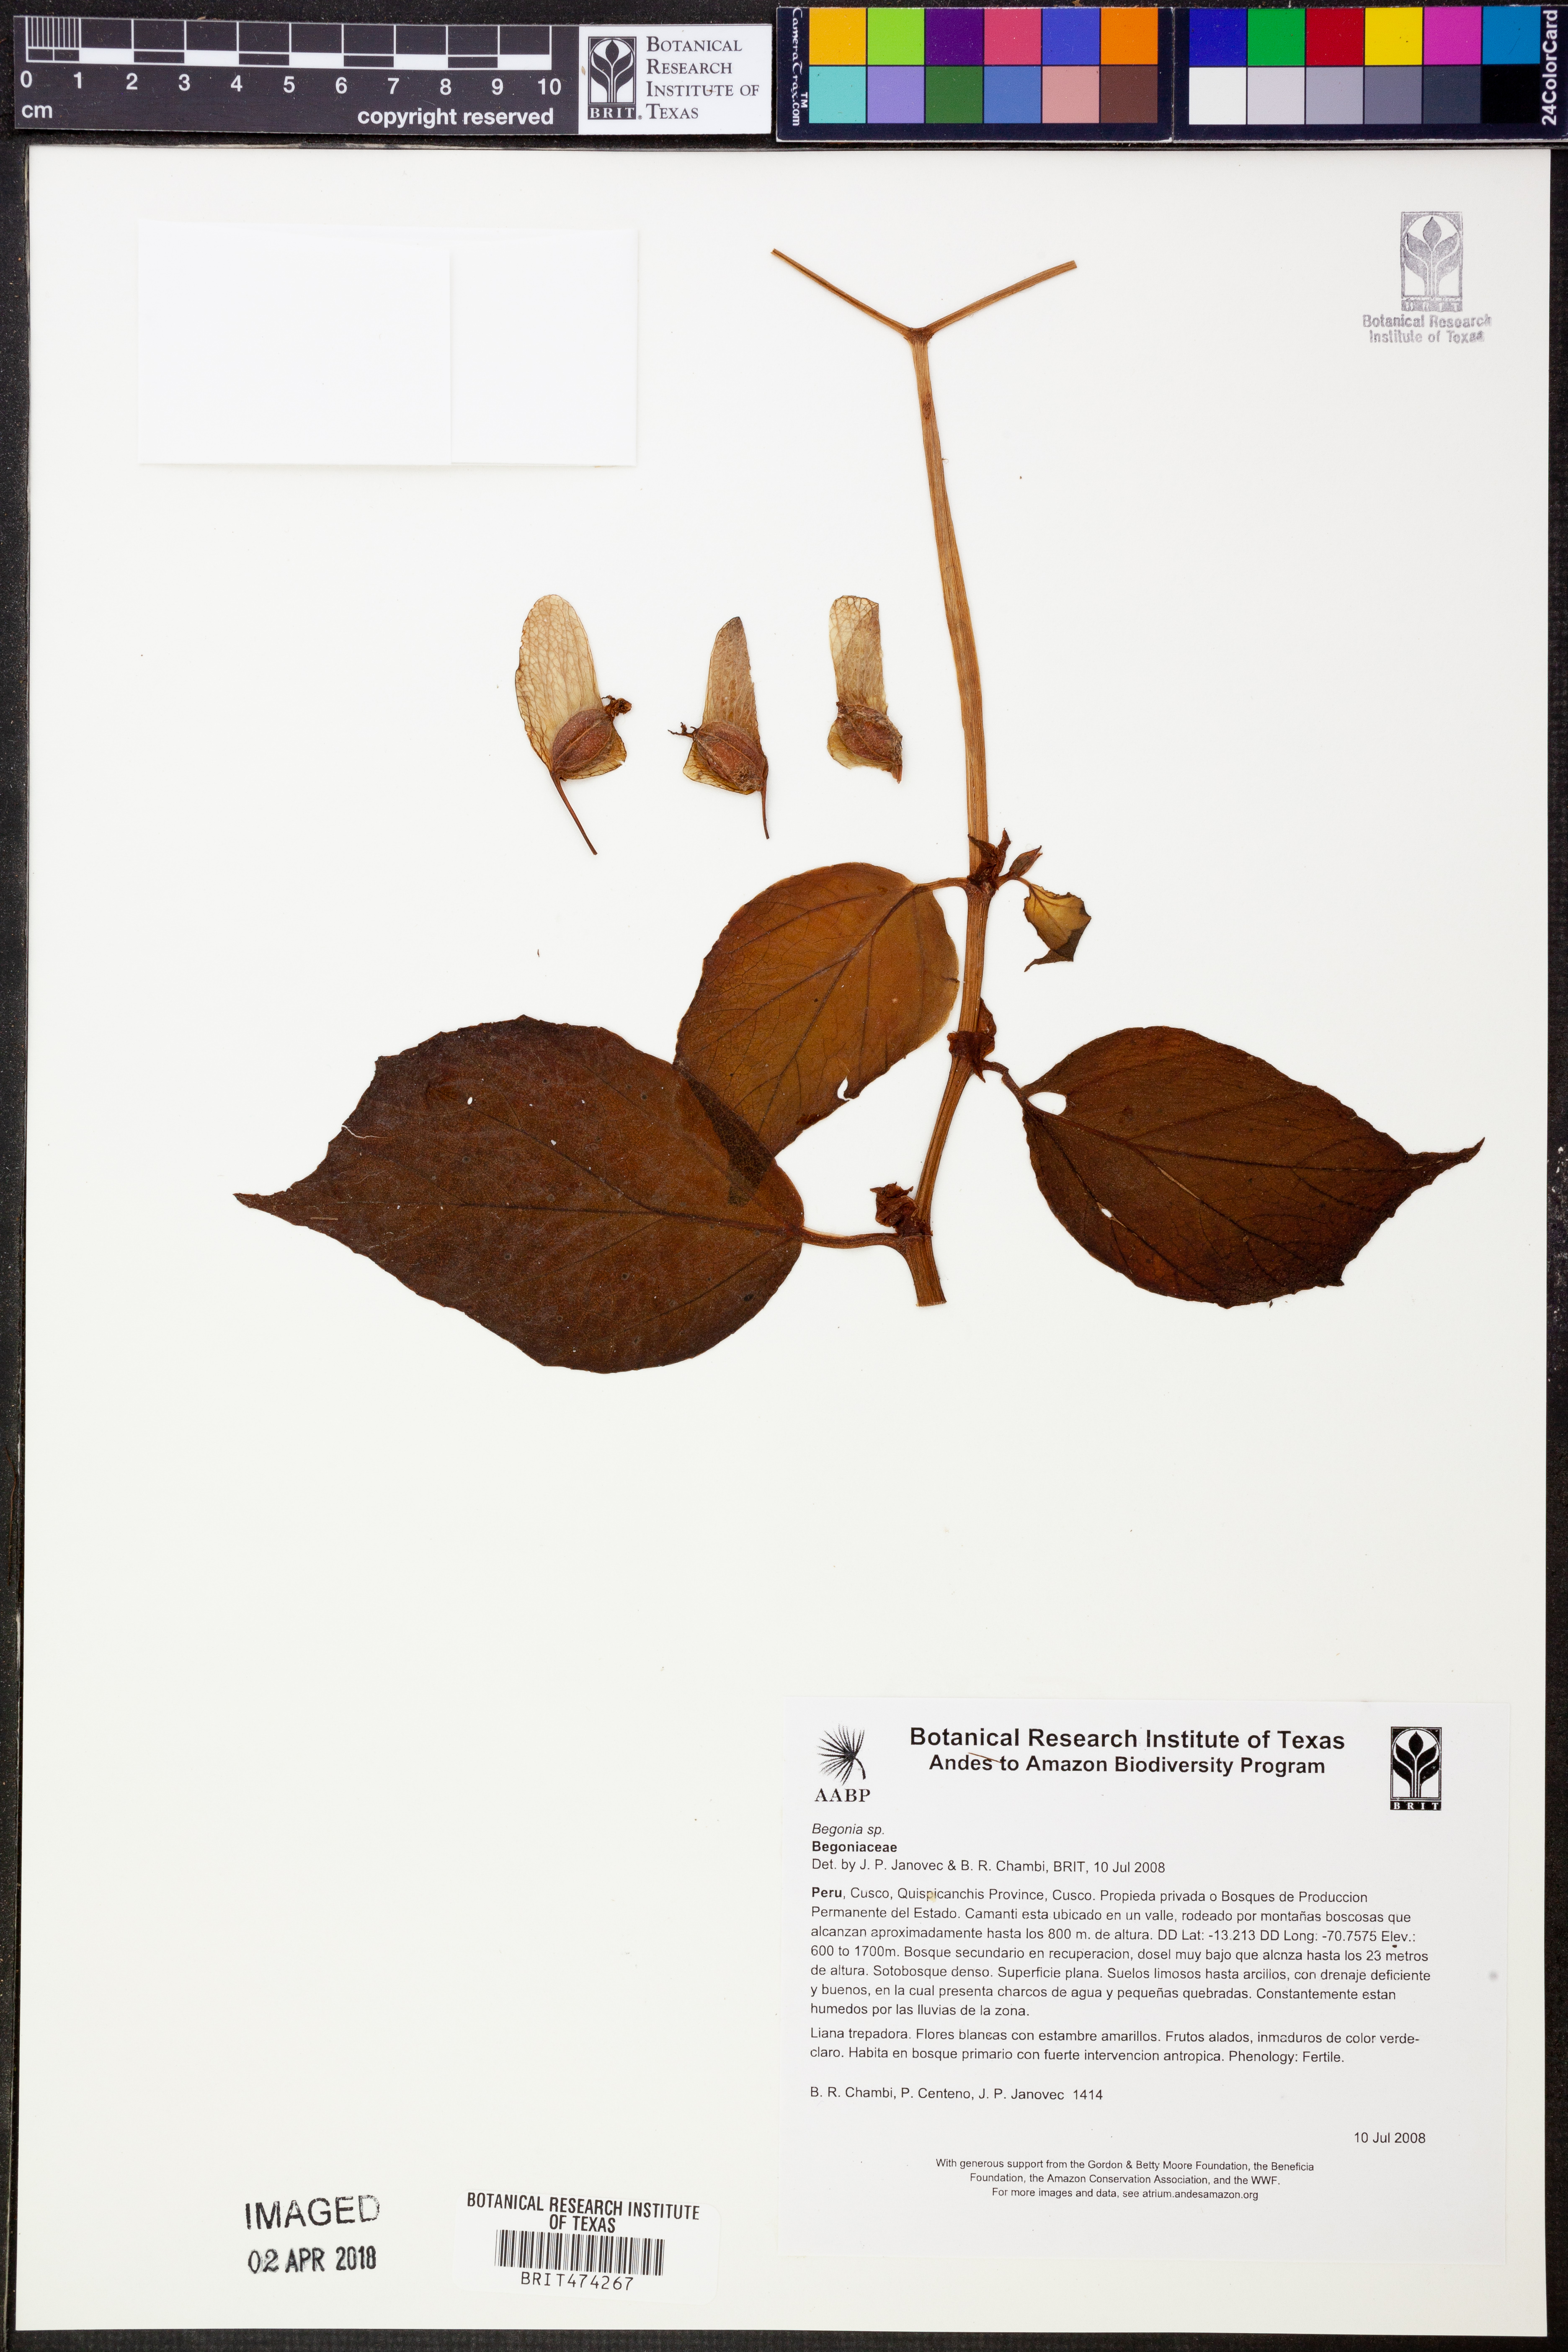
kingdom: Plantae
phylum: Tracheophyta
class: Magnoliopsida
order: Cucurbitales
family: Begoniaceae
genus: Begonia
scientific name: Begonia glabra
